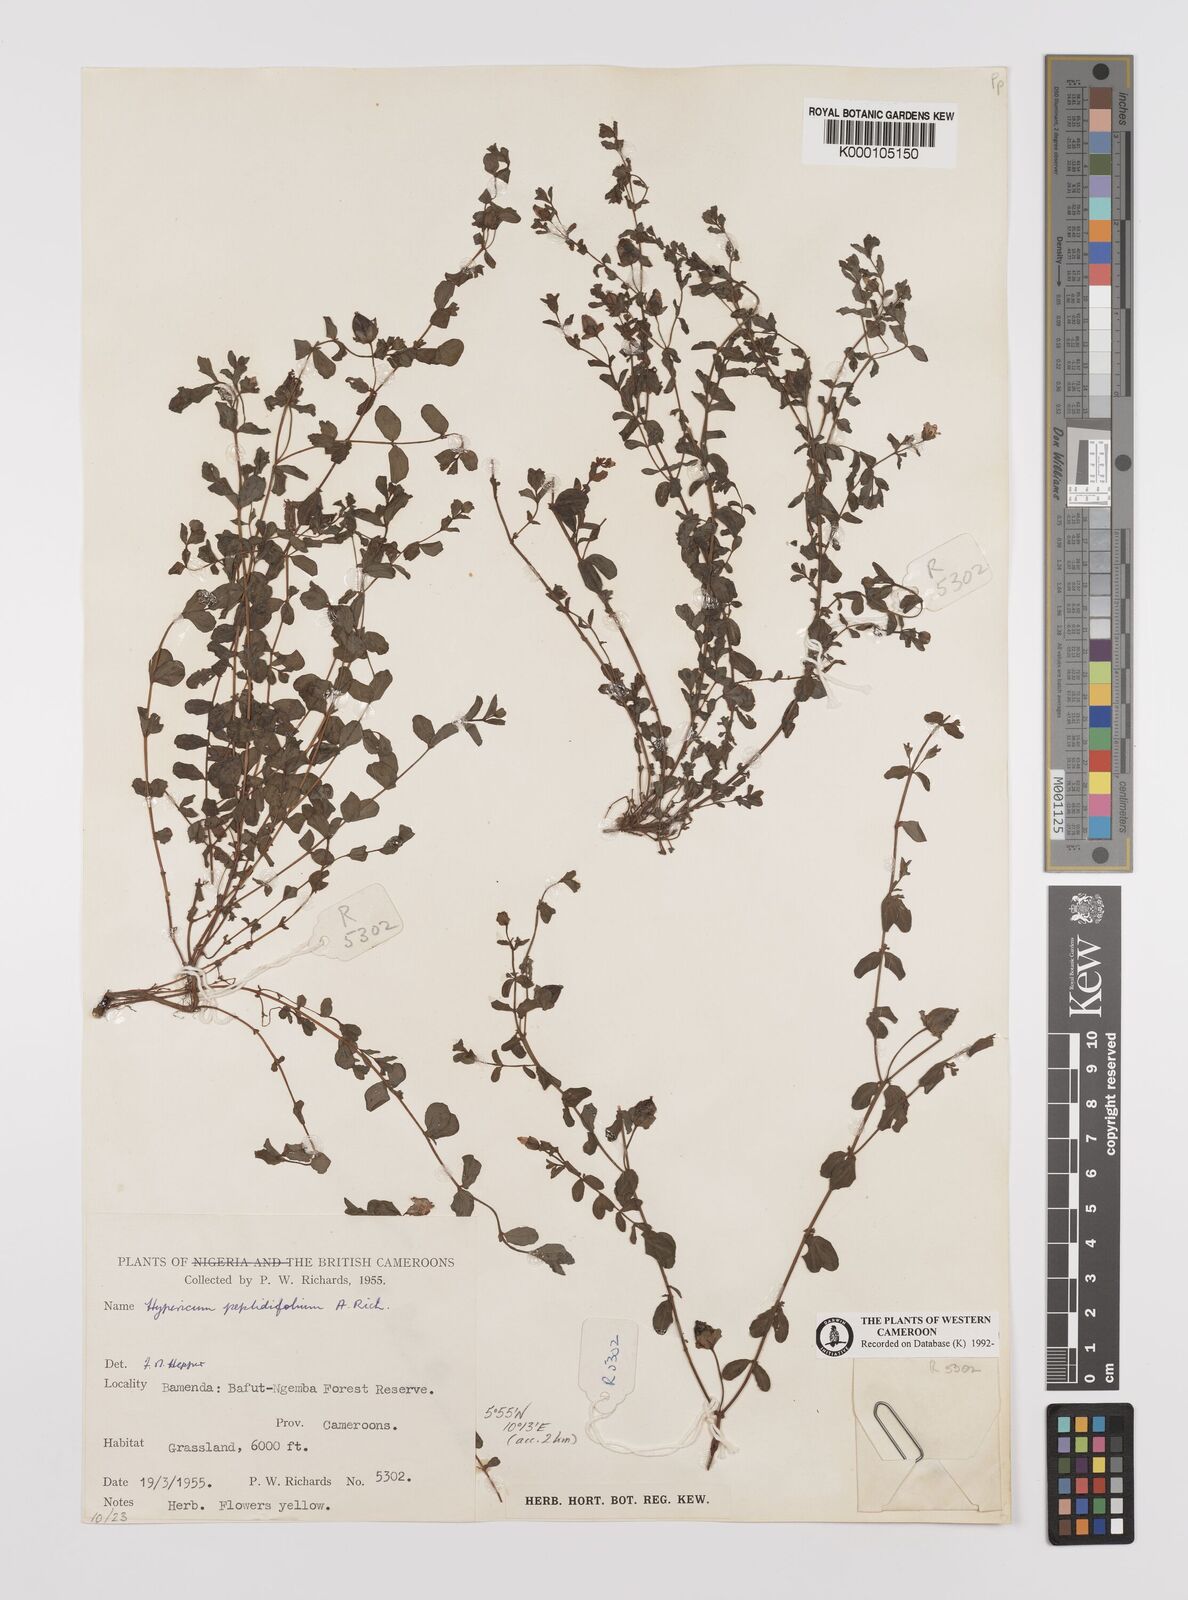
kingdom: Plantae
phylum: Tracheophyta
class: Magnoliopsida
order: Malpighiales
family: Hypericaceae
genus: Hypericum
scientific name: Hypericum peplidifolium
